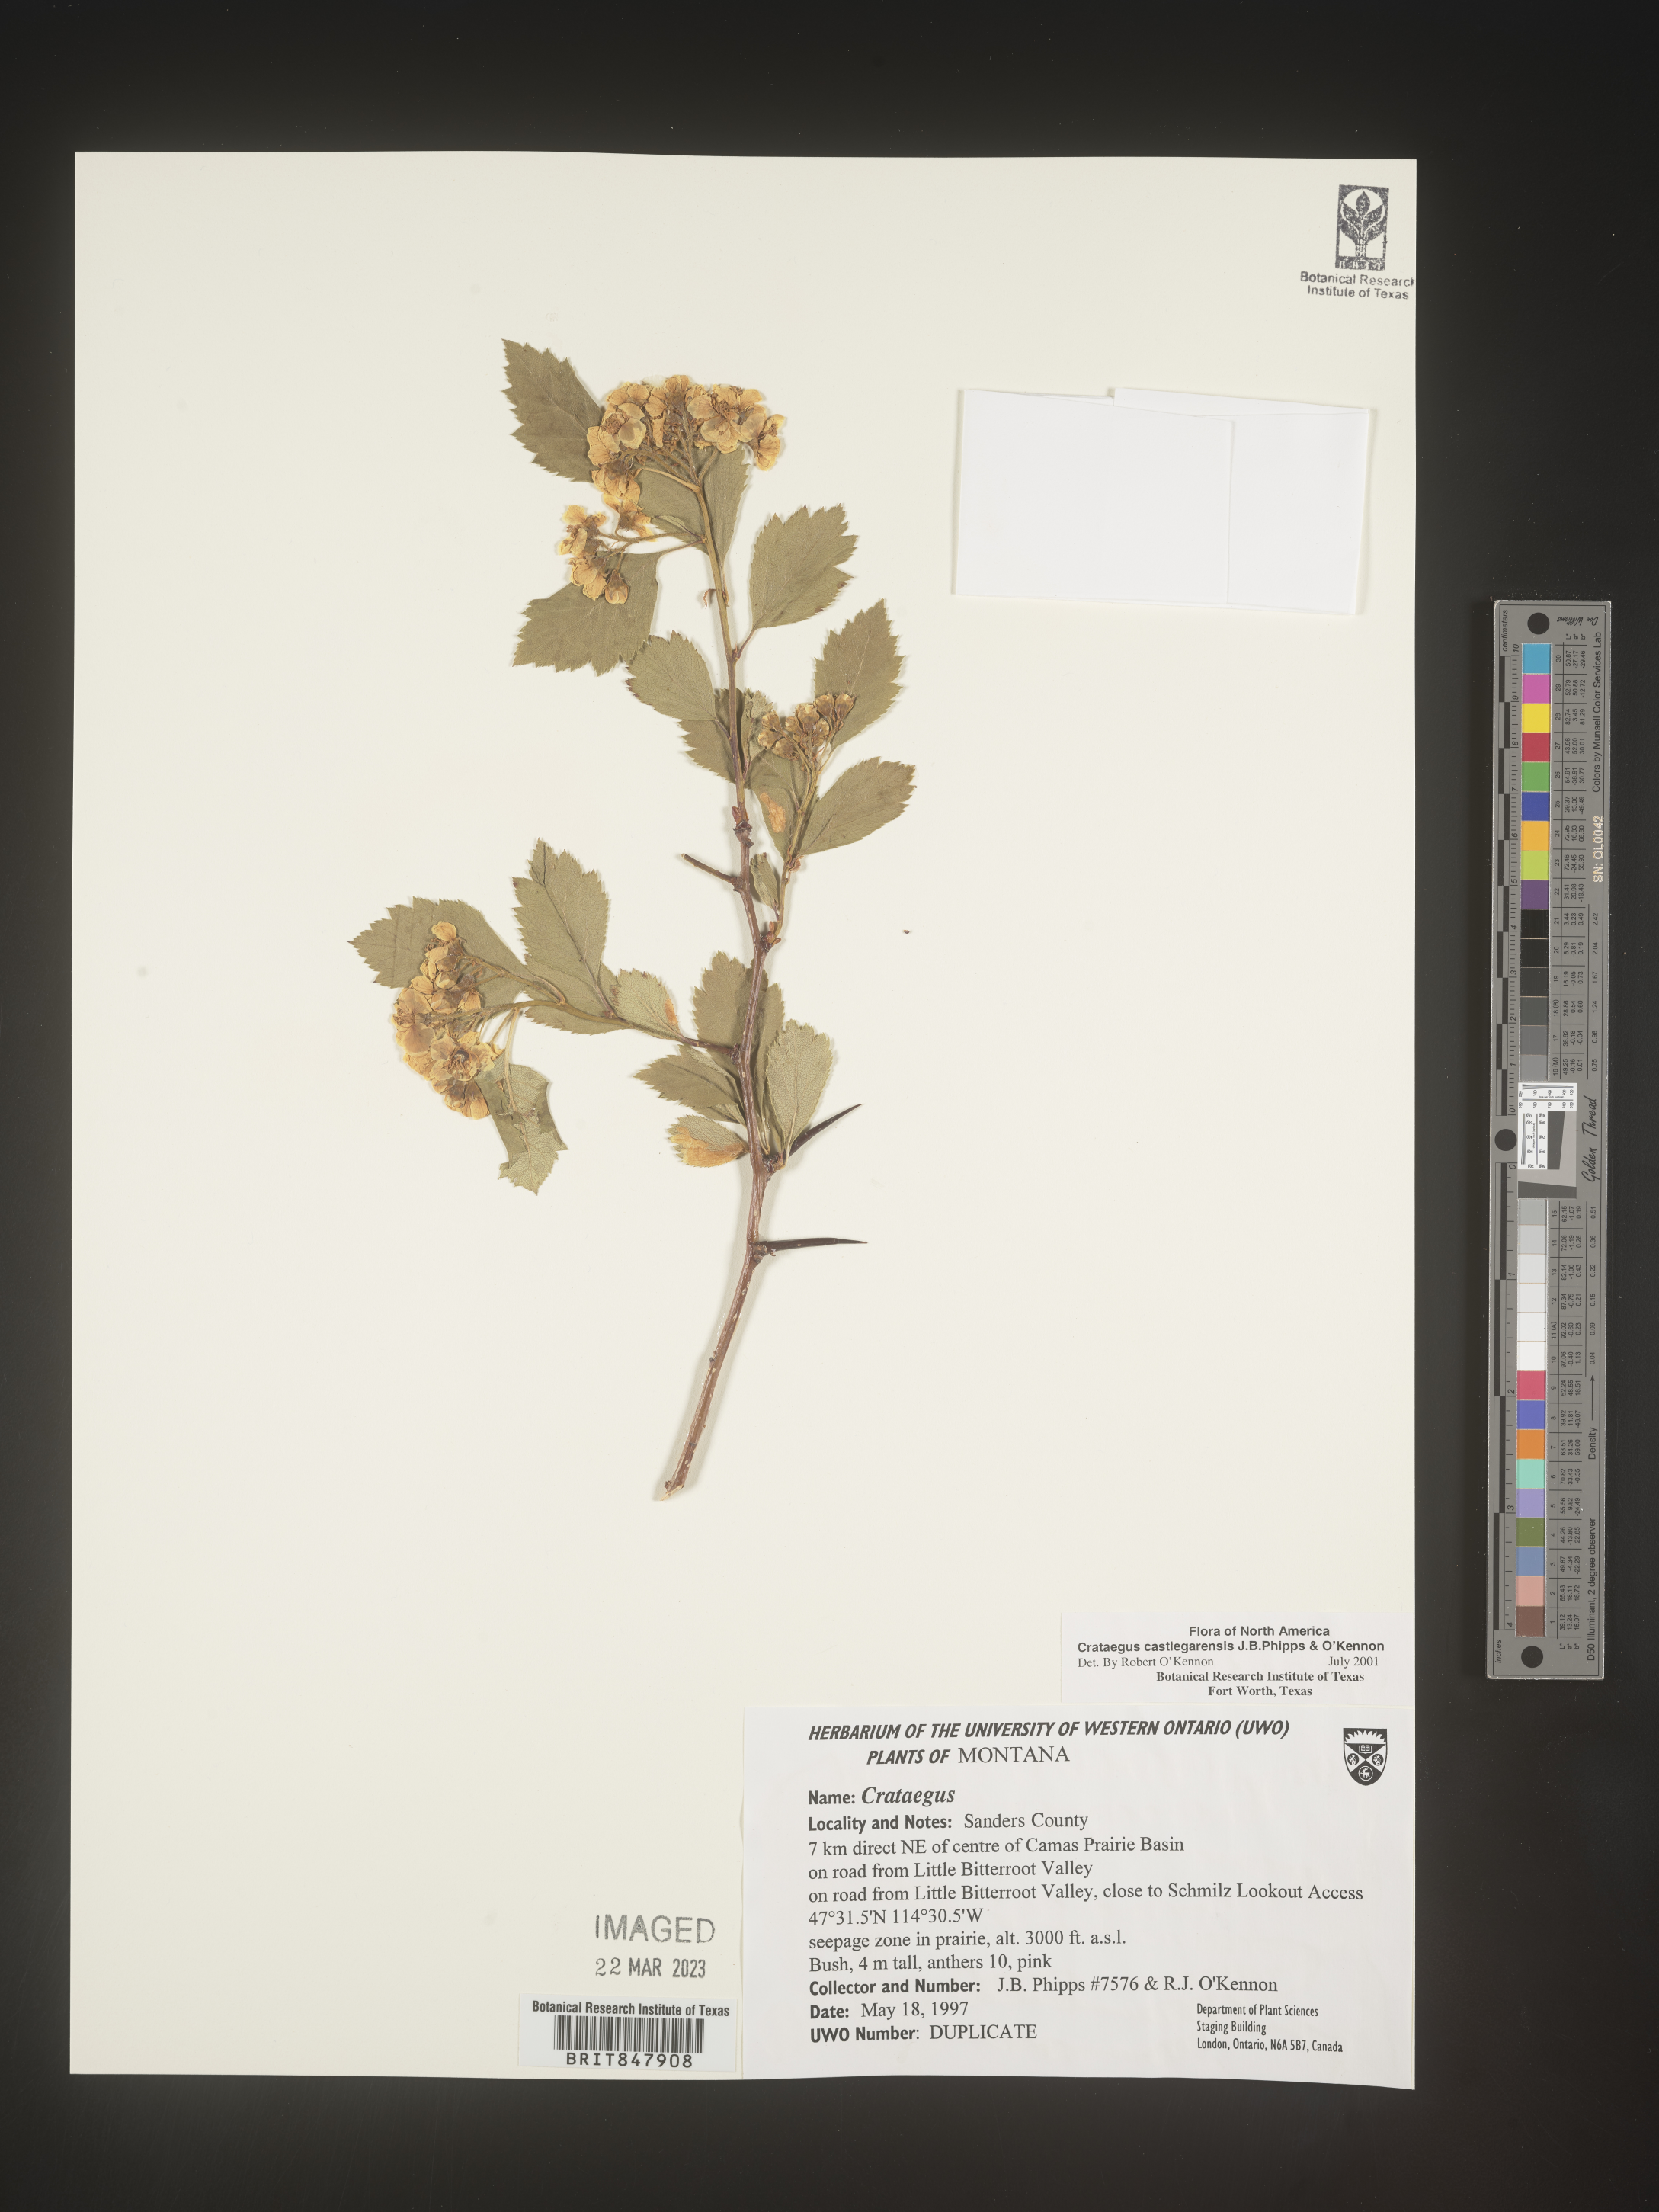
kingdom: Plantae
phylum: Tracheophyta
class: Magnoliopsida
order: Rosales
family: Rosaceae
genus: Crataegus
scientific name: Crataegus castlegarensis
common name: Castlegar hawthorn
